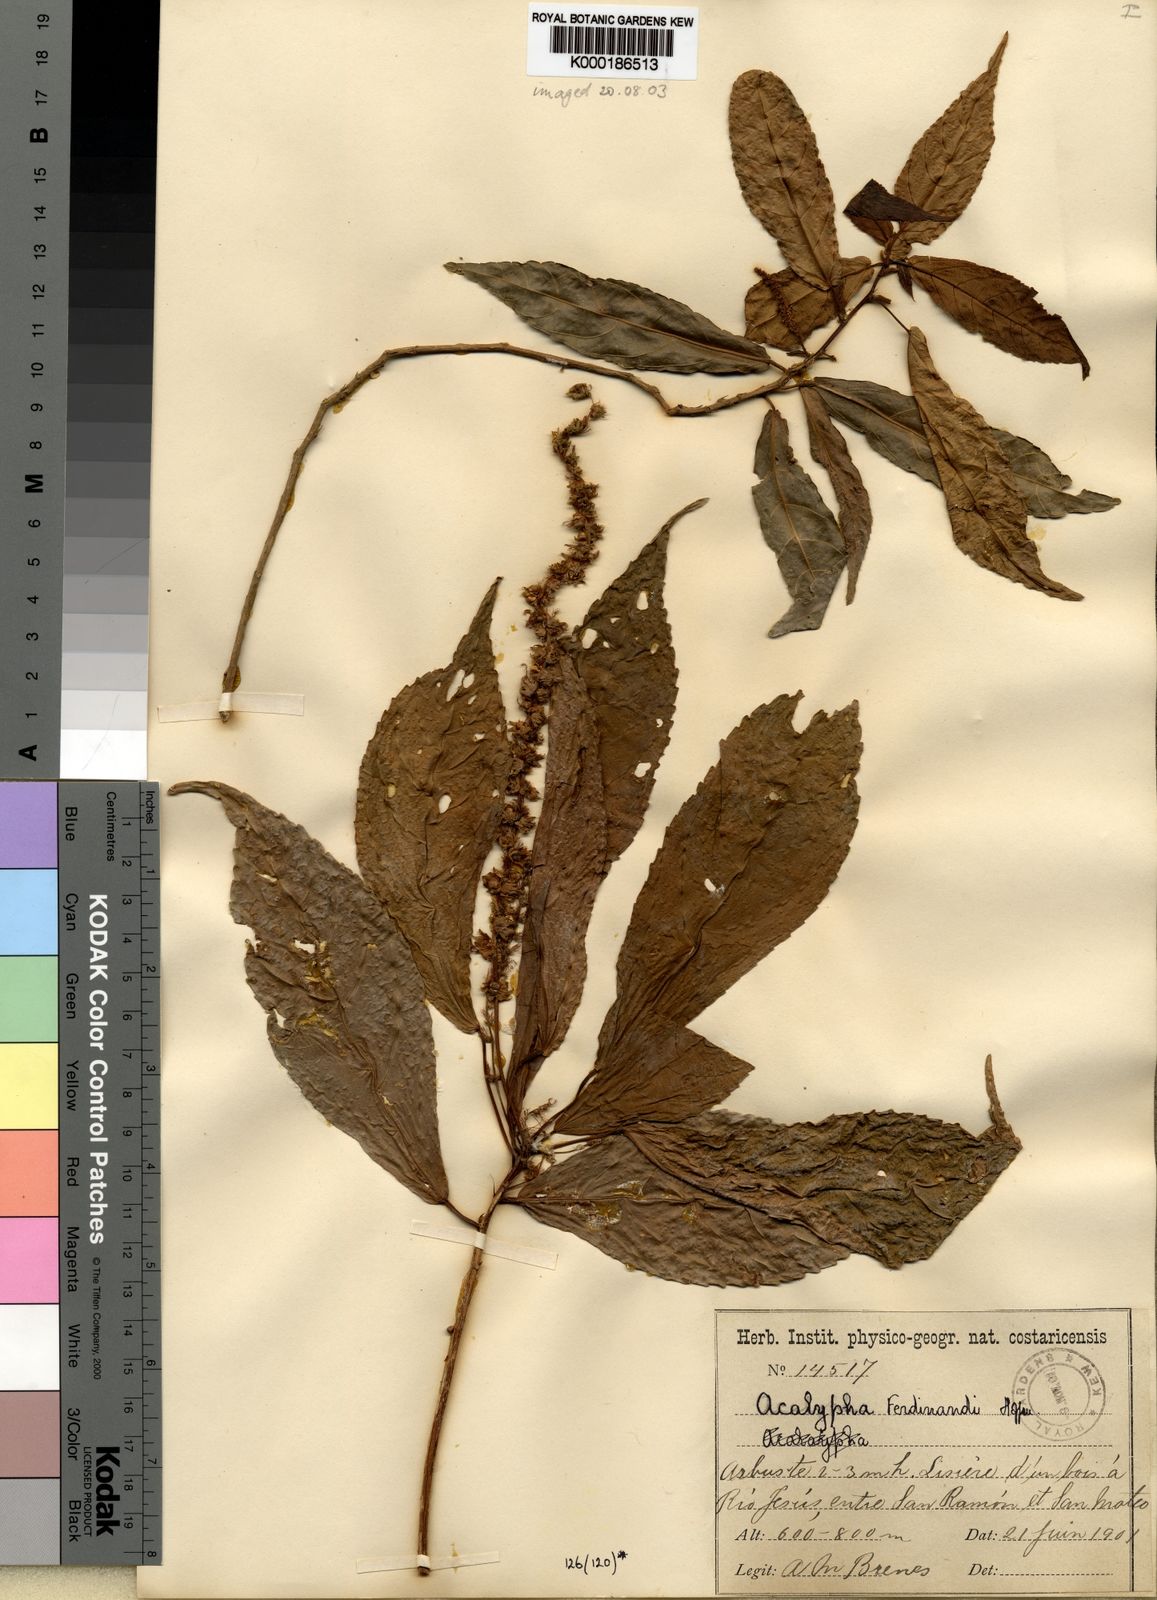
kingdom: Plantae
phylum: Tracheophyta
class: Magnoliopsida
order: Malpighiales
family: Euphorbiaceae
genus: Acalypha
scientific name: Acalypha ferdinandi
